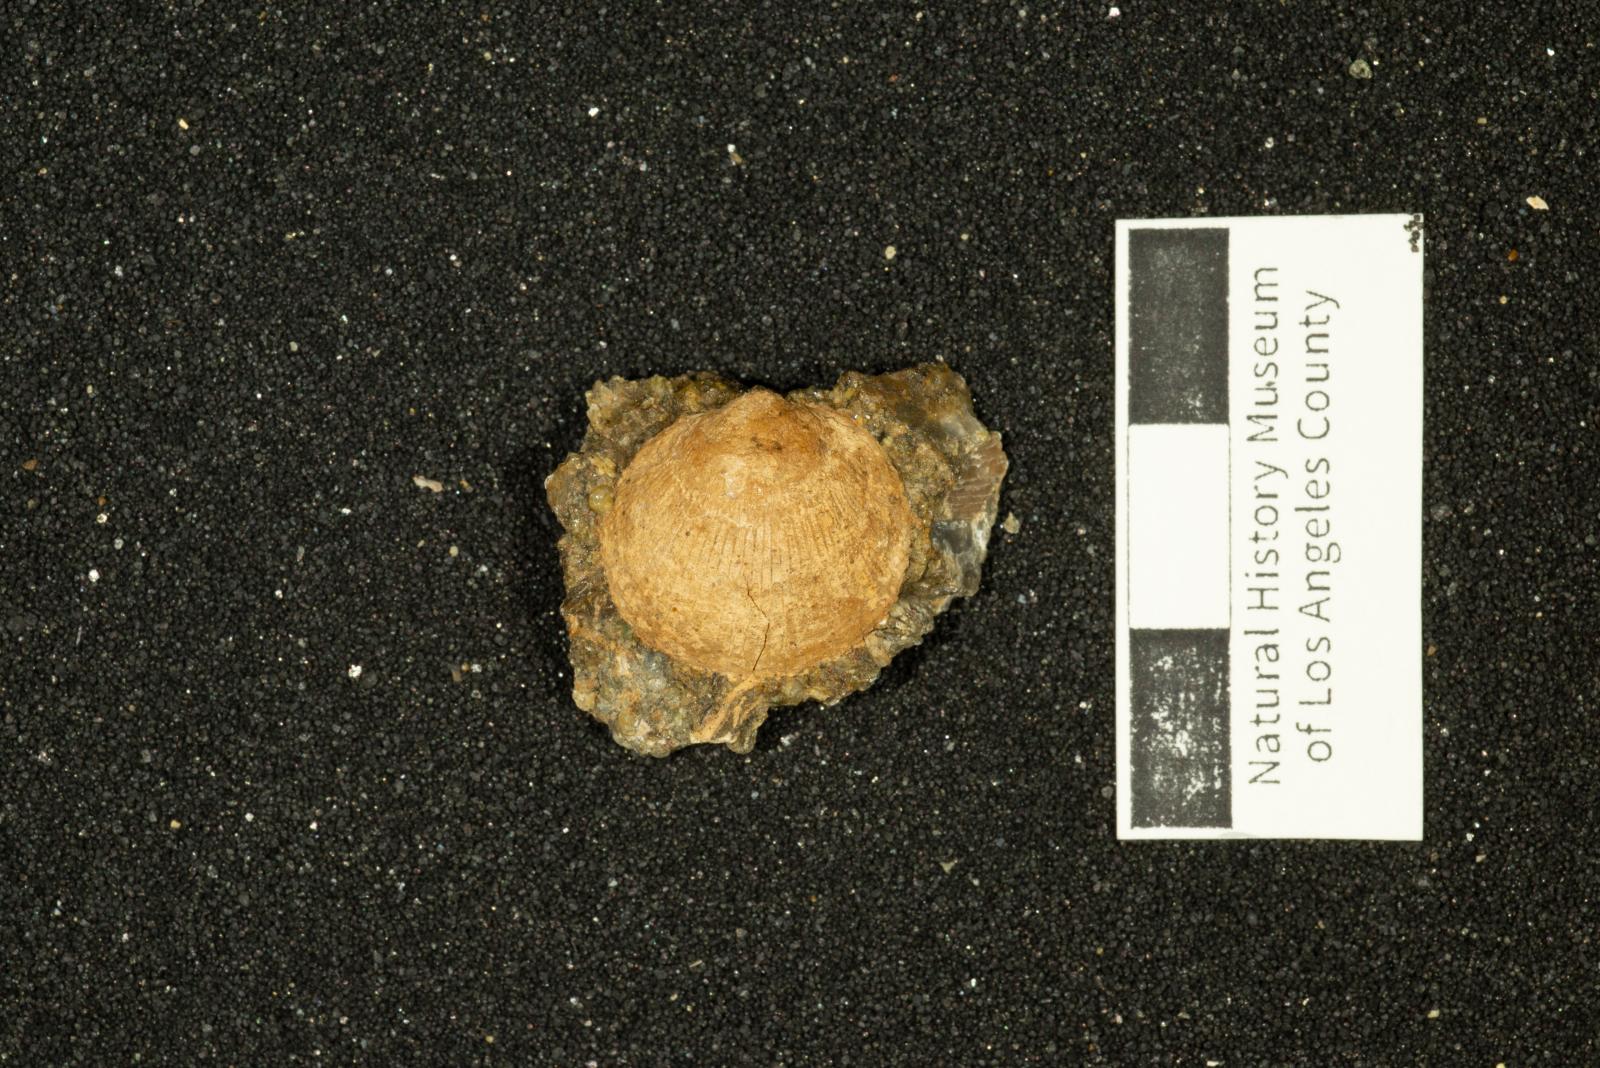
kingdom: Animalia
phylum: Mollusca
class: Bivalvia
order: Arcida
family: Glycymerididae
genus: Glycymeris
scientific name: Glycymeris Pectunculus pacificus
